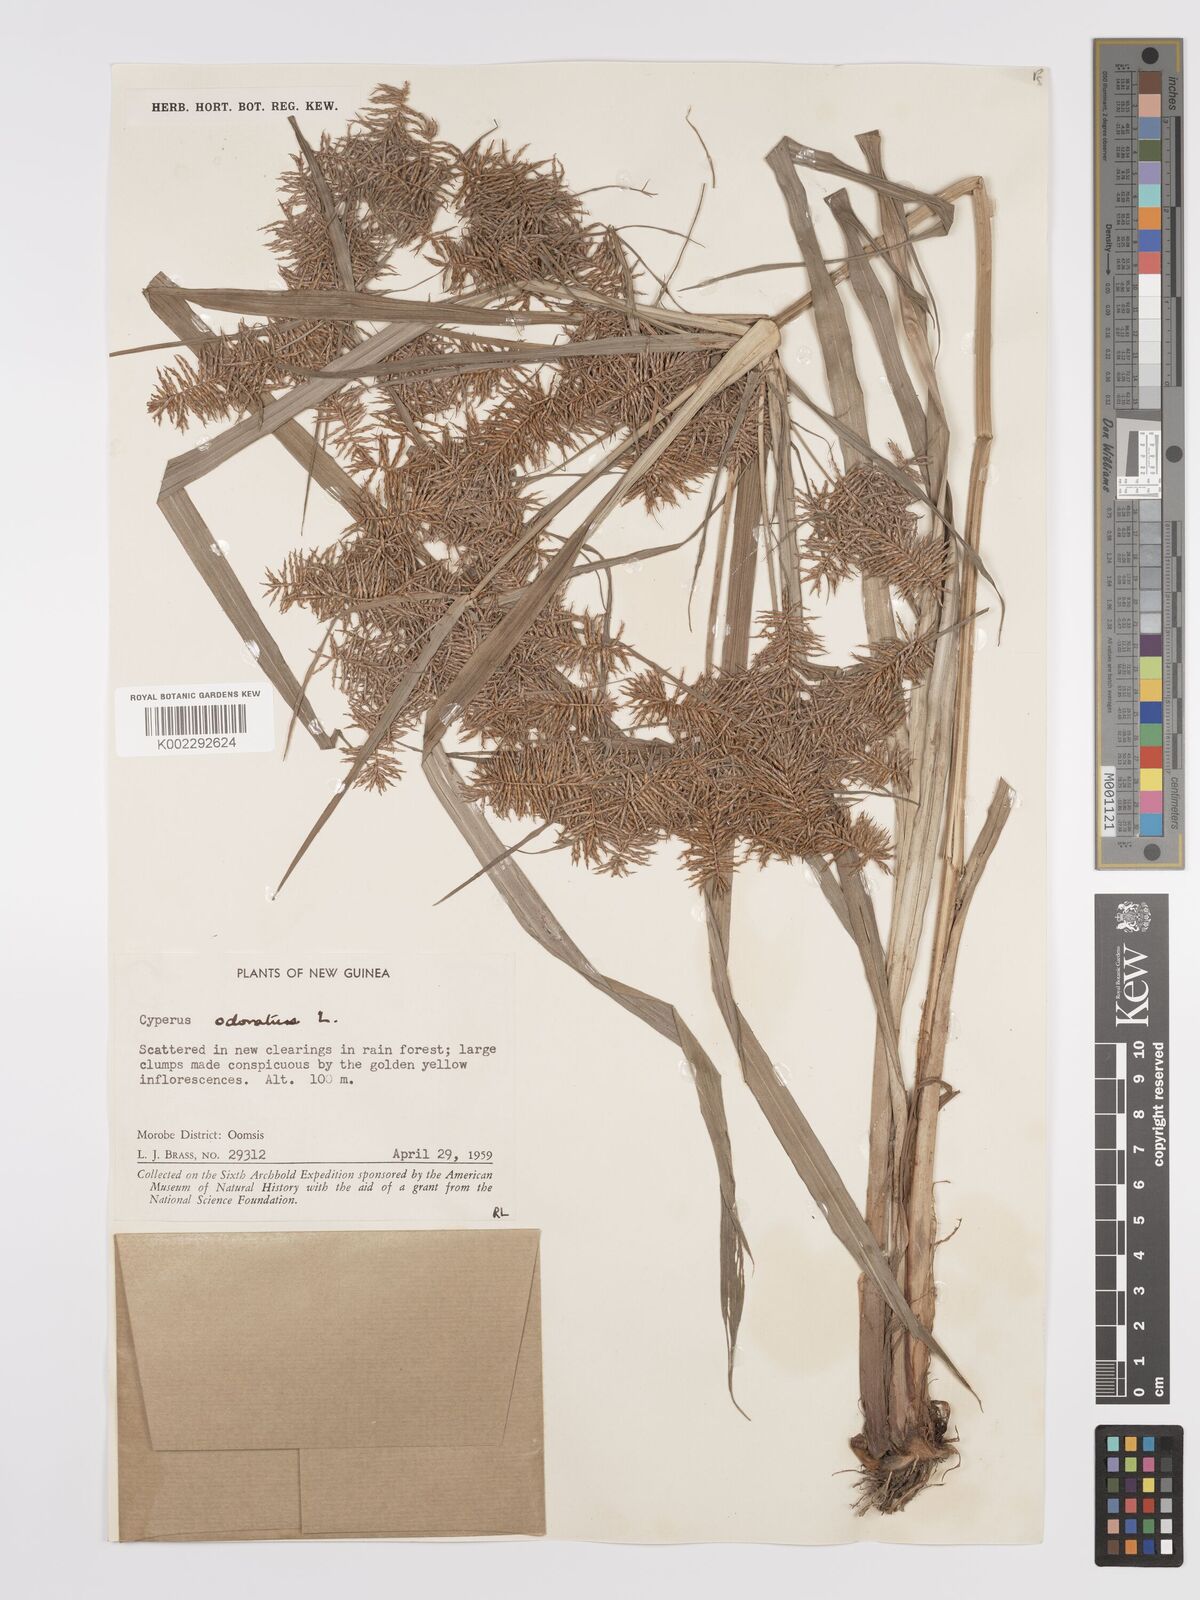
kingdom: Plantae
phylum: Tracheophyta
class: Liliopsida
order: Poales
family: Cyperaceae
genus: Cyperus
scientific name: Cyperus odoratus
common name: Fragrant flatsedge
